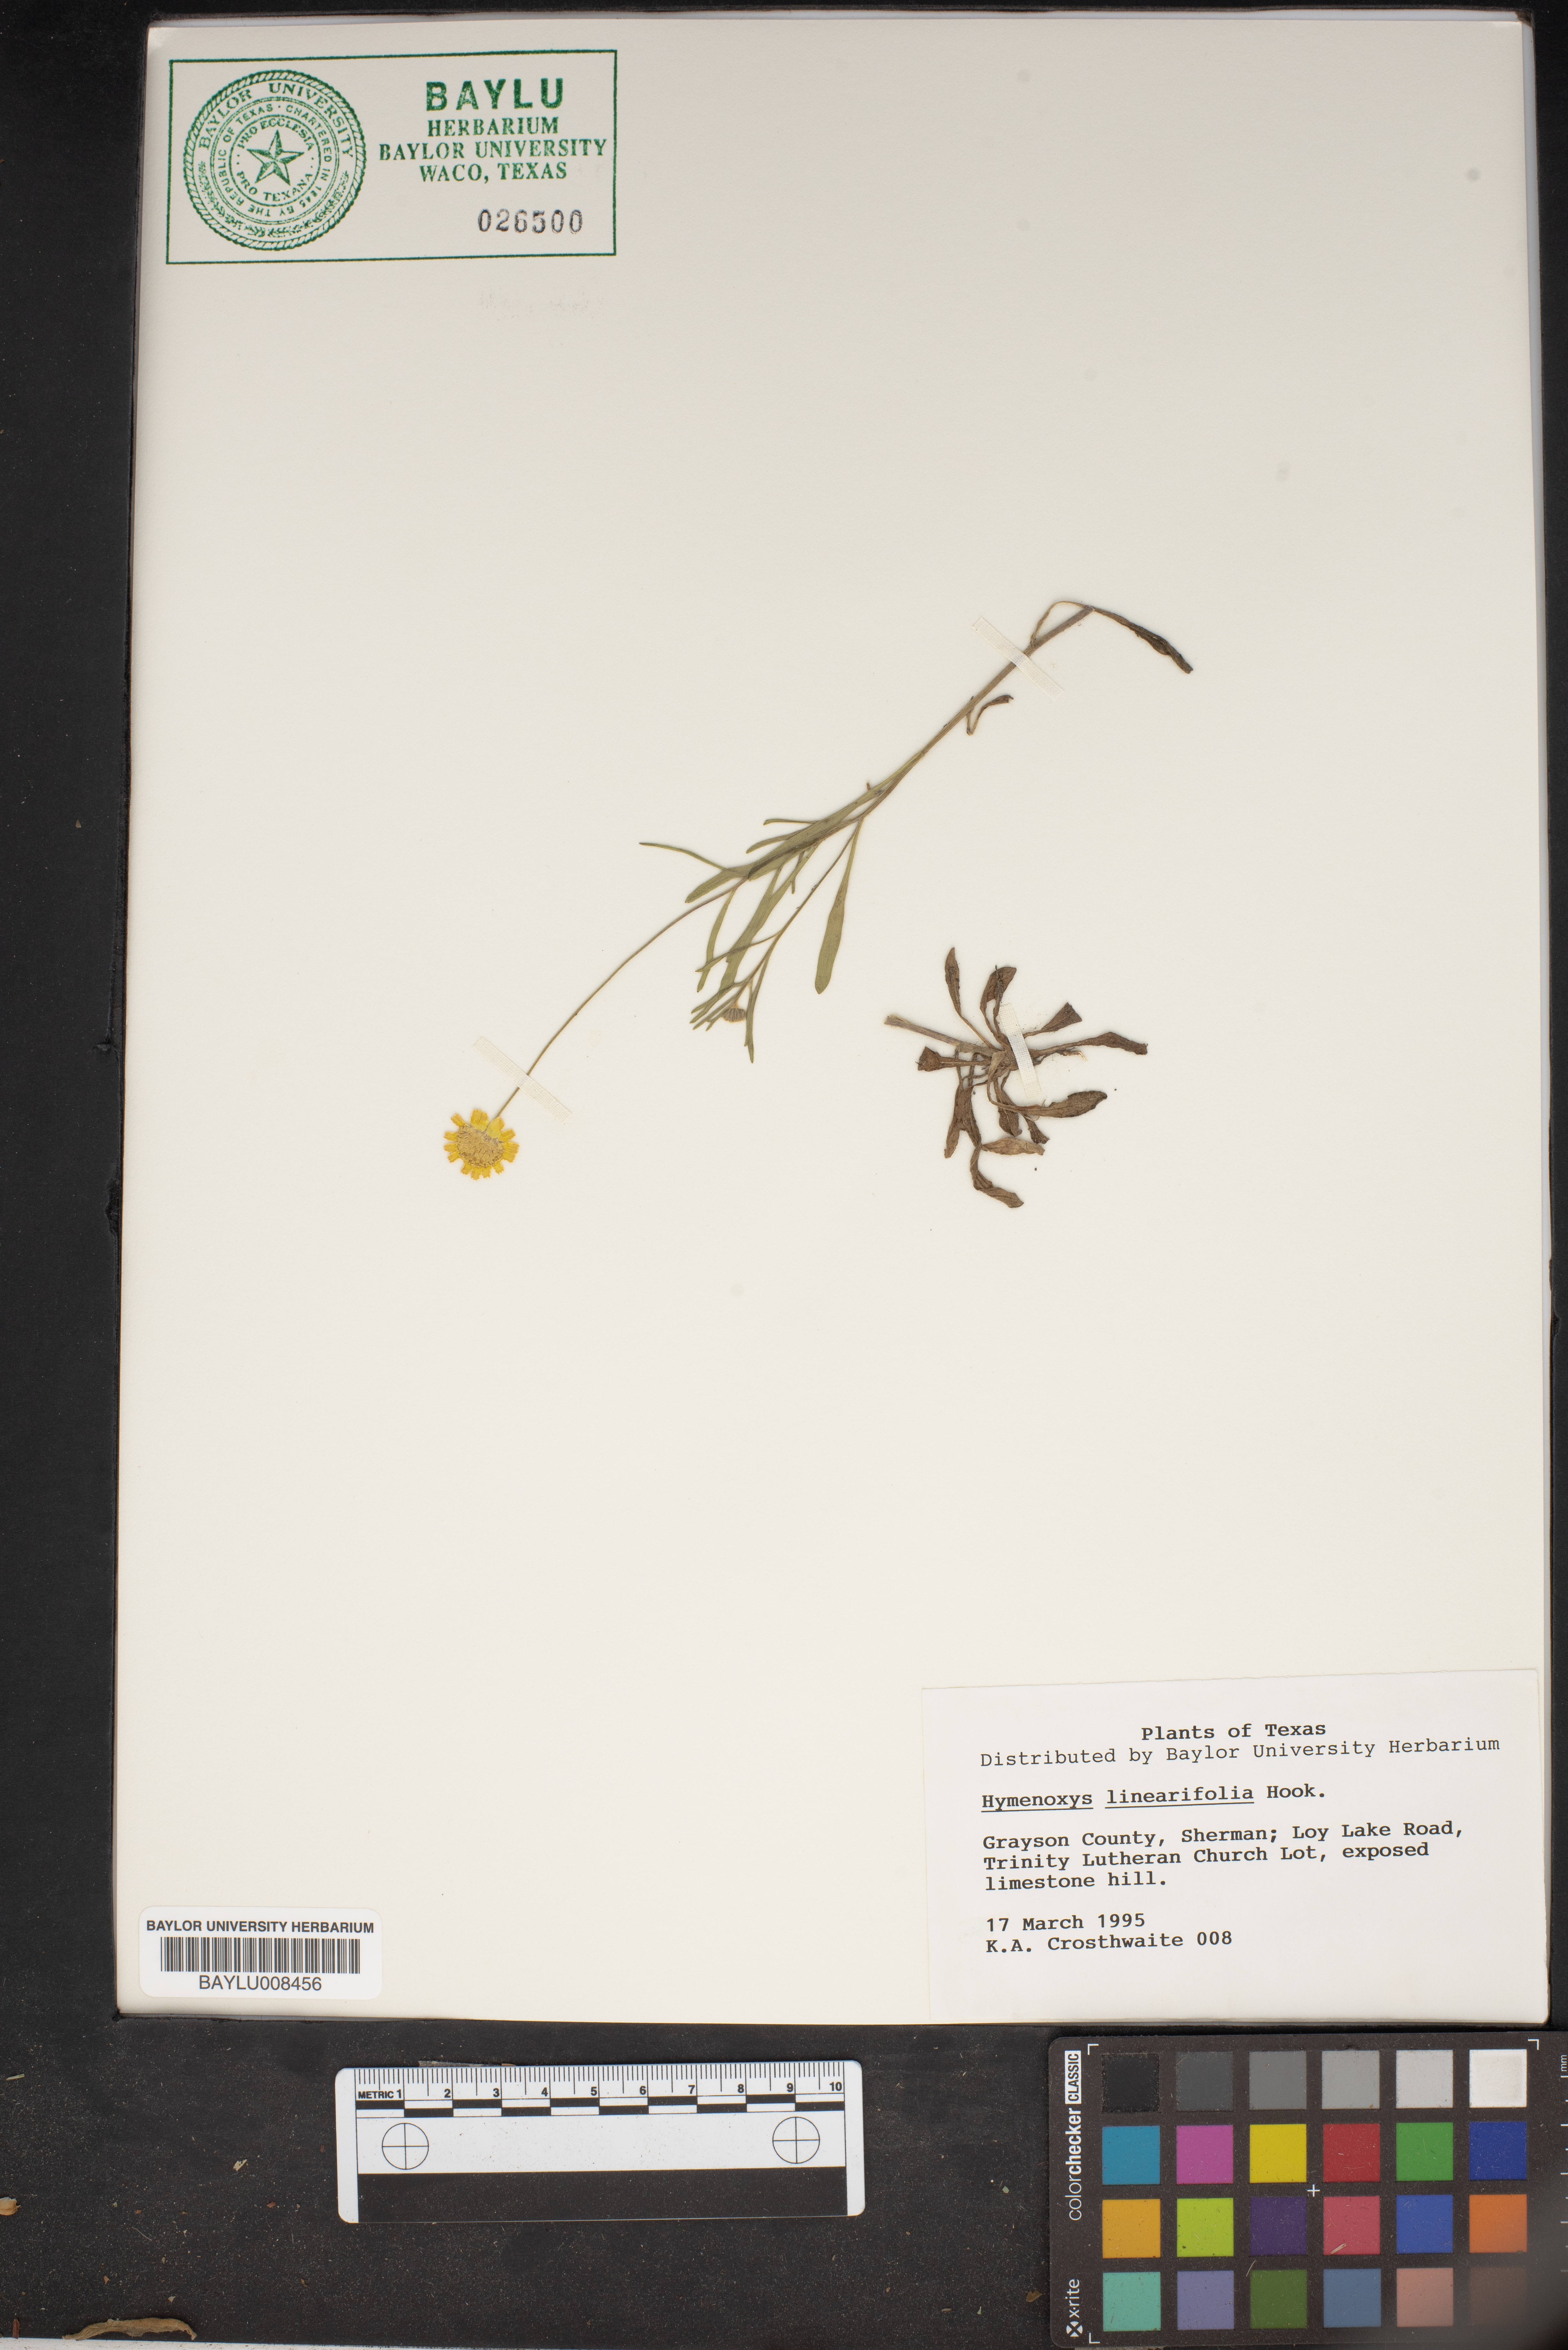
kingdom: Plantae
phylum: Tracheophyta
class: Magnoliopsida
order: Asterales
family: Asteraceae
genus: Tetraneuris
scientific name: Tetraneuris linearifolia
